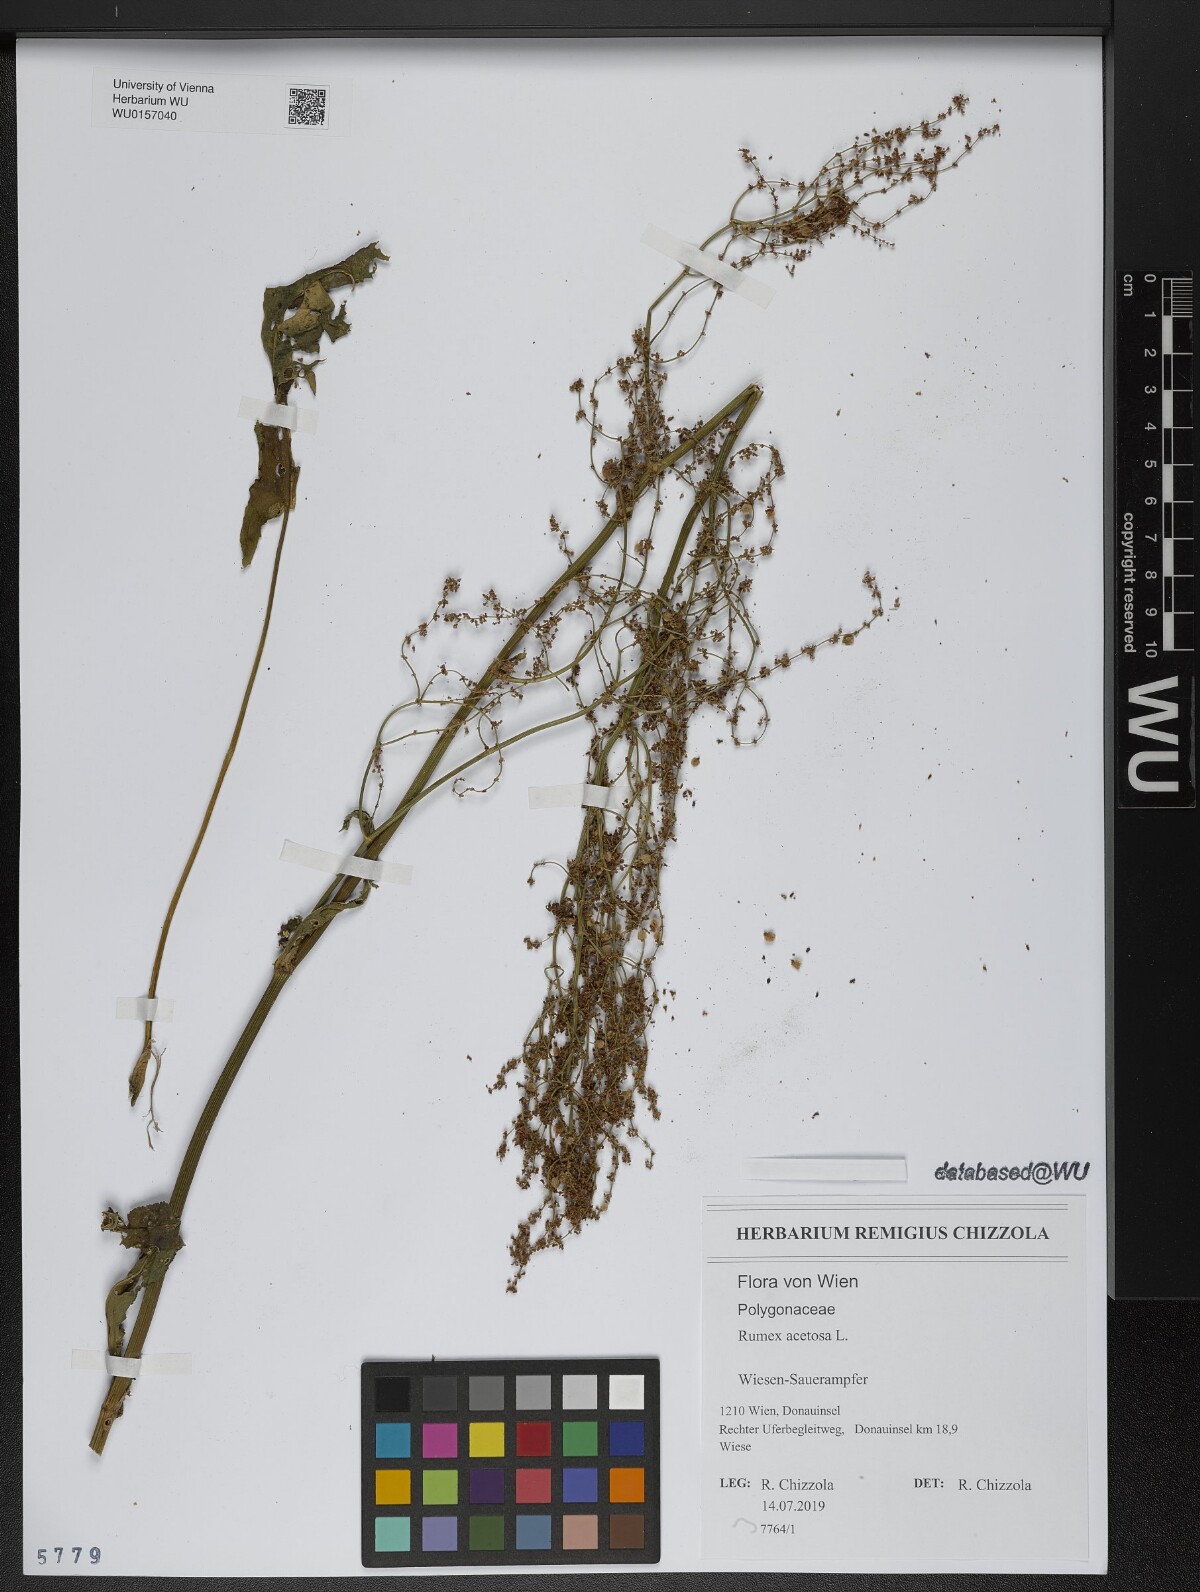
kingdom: Plantae
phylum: Tracheophyta
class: Magnoliopsida
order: Caryophyllales
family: Polygonaceae
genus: Rumex
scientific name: Rumex acetosa
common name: Garden sorrel
